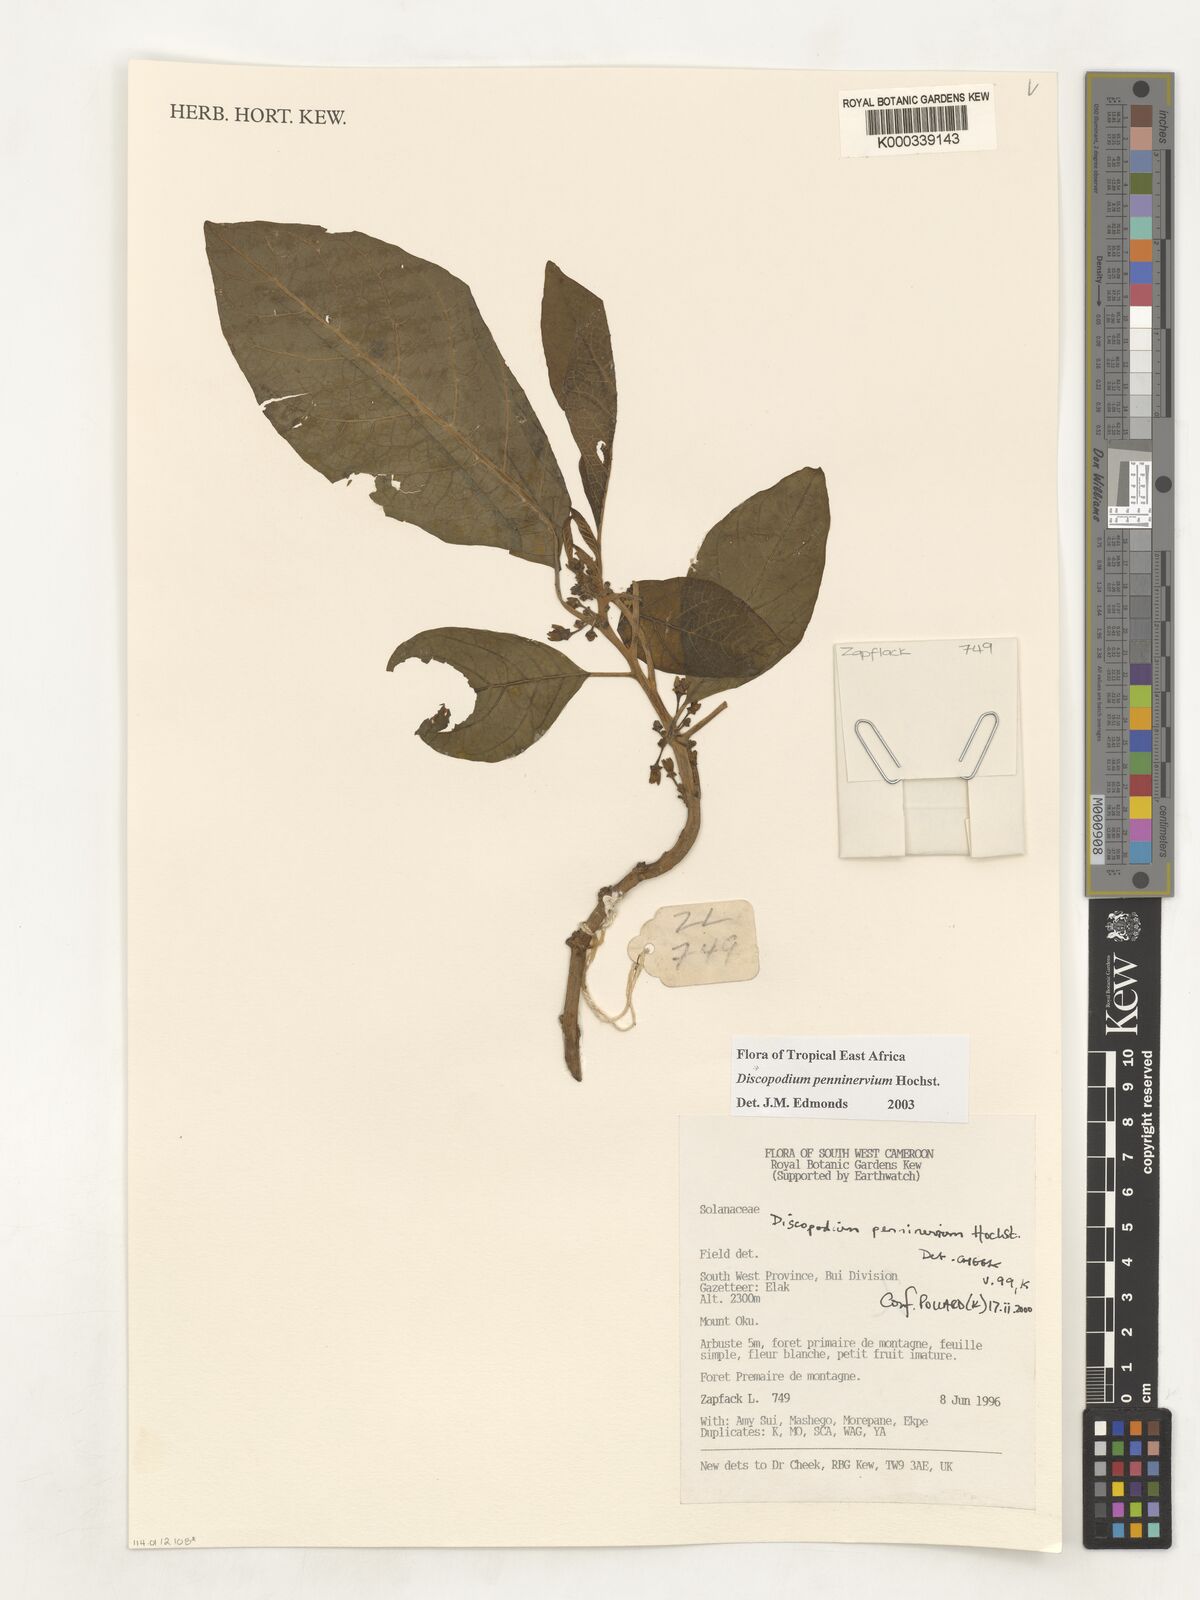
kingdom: Plantae
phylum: Tracheophyta
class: Magnoliopsida
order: Solanales
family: Solanaceae
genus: Discopodium
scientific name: Discopodium penninervium
